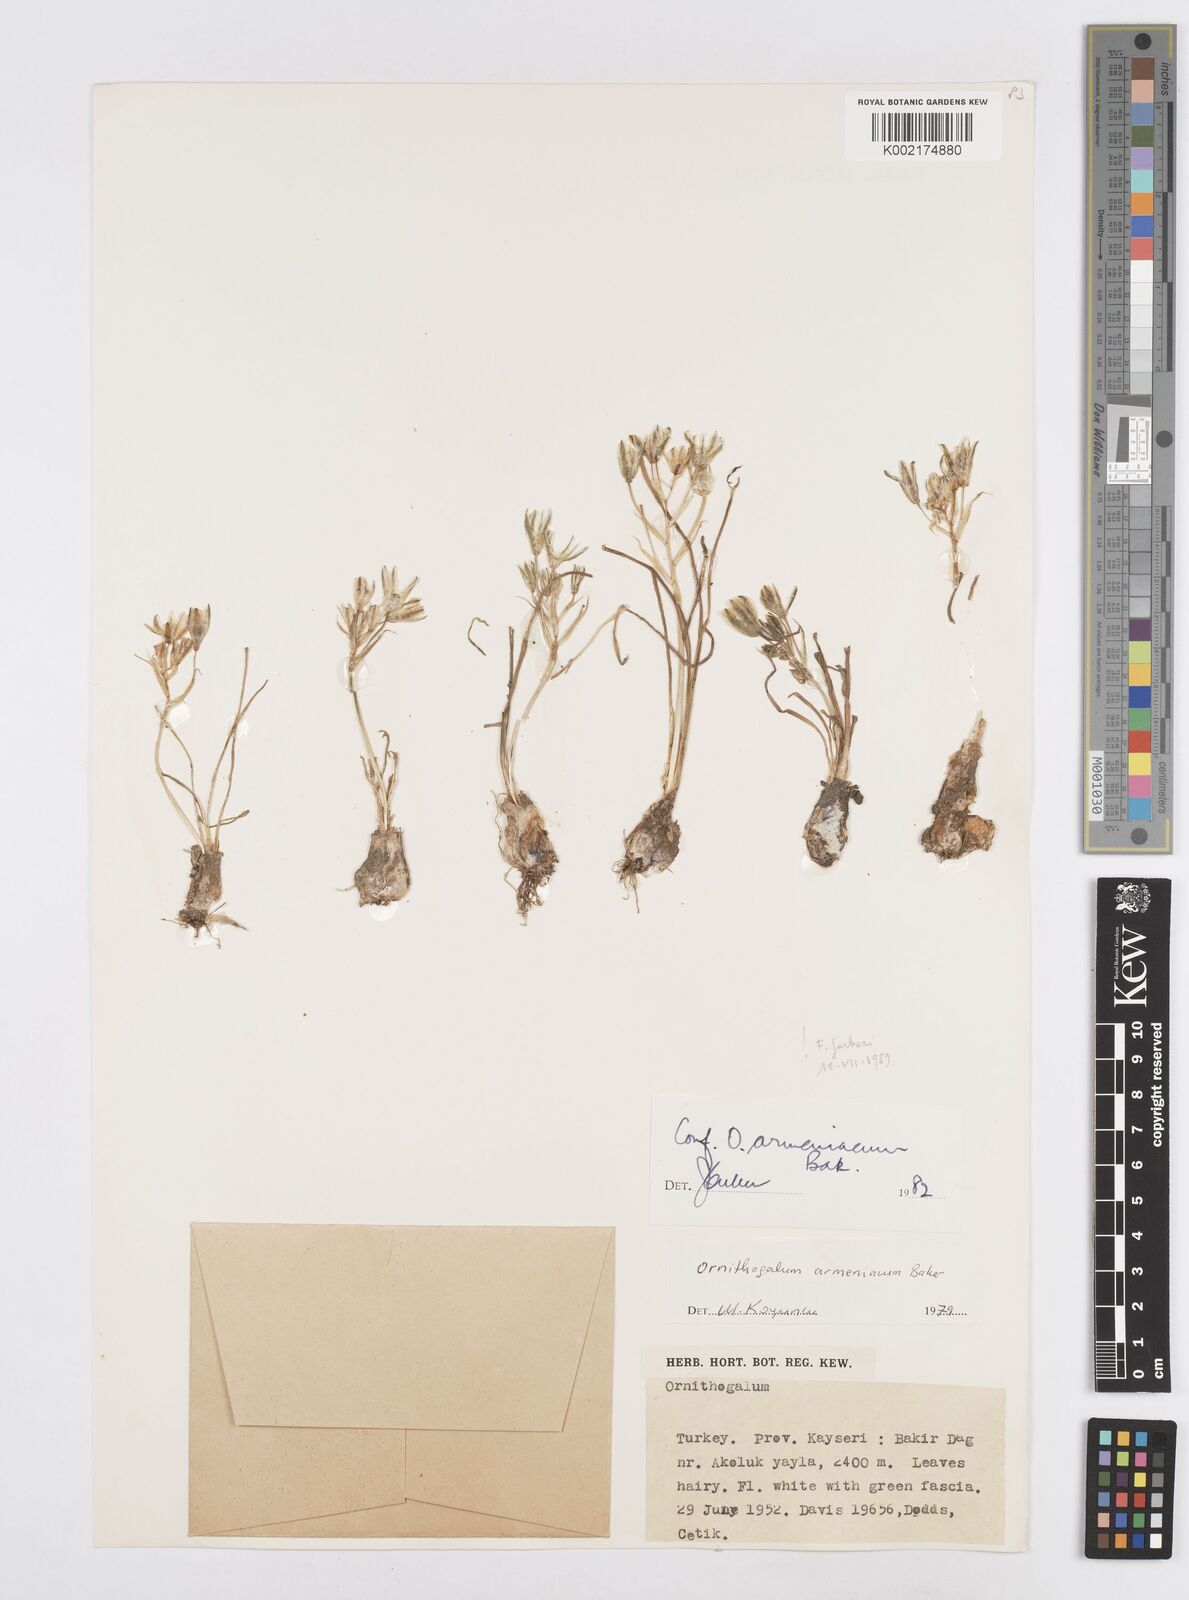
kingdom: Plantae
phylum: Tracheophyta
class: Liliopsida
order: Asparagales
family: Asparagaceae
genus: Ornithogalum
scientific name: Ornithogalum armeniacum
